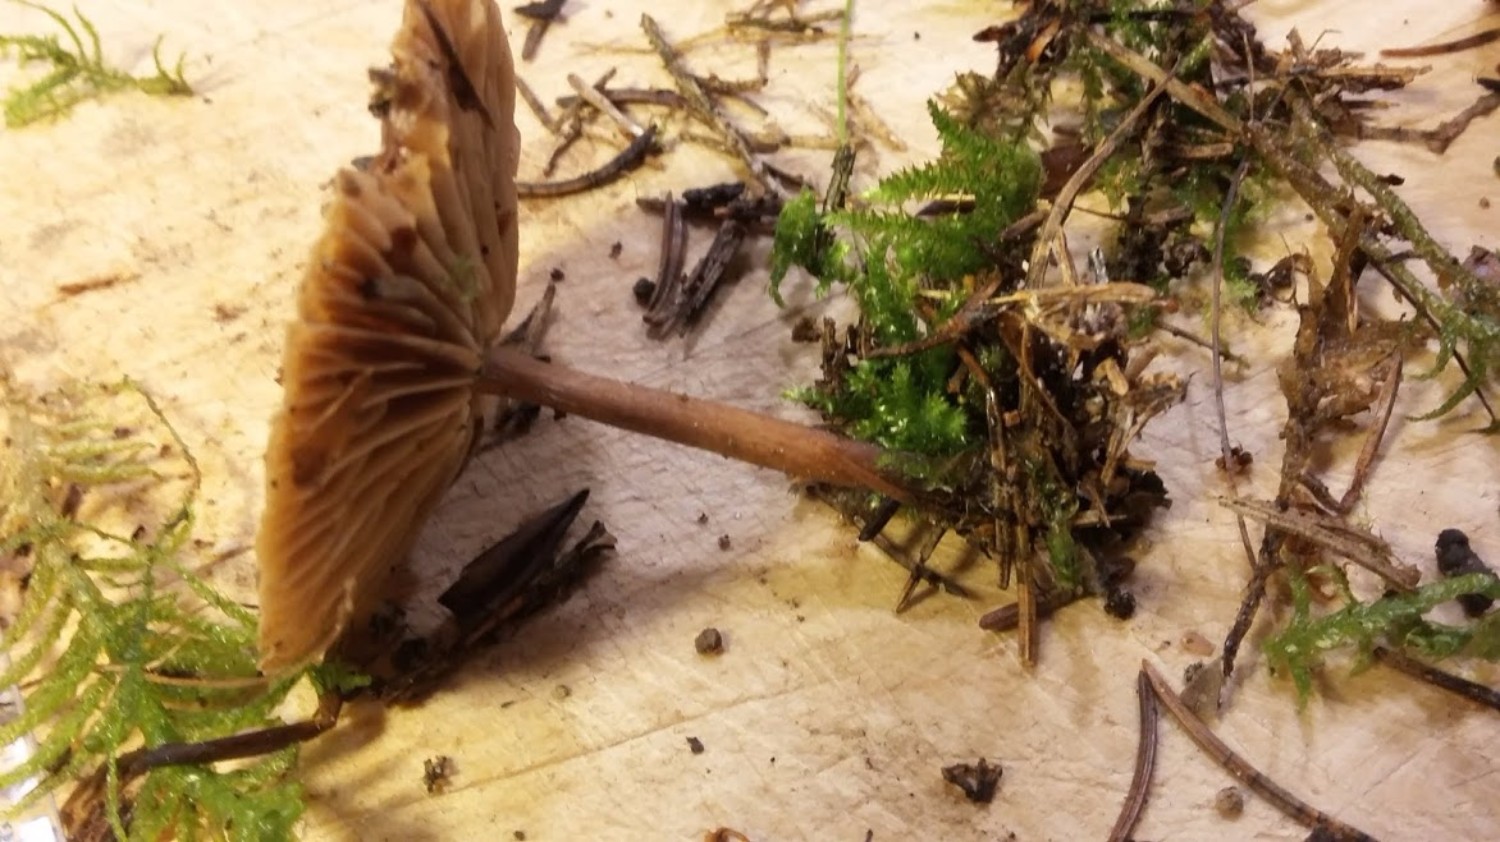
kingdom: Fungi
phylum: Basidiomycota
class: Agaricomycetes
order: Agaricales
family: Omphalotaceae
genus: Gymnopus
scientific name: Gymnopus
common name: fladhat
